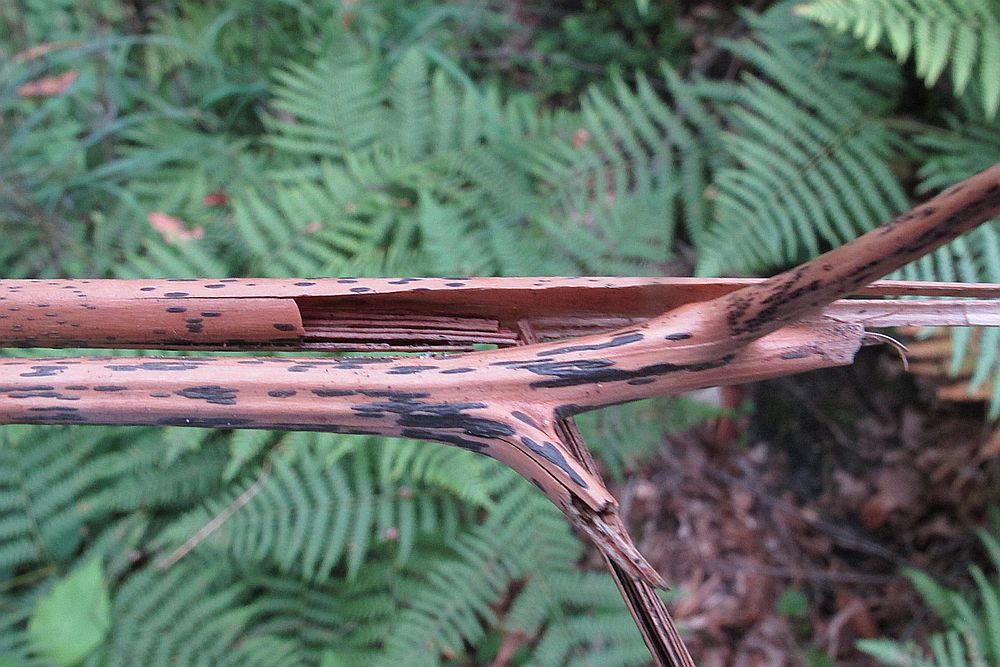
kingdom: Fungi
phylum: Ascomycota
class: Dothideomycetes
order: Pleosporales
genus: Rhopographus
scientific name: Rhopographus filicinus
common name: Bracken map
